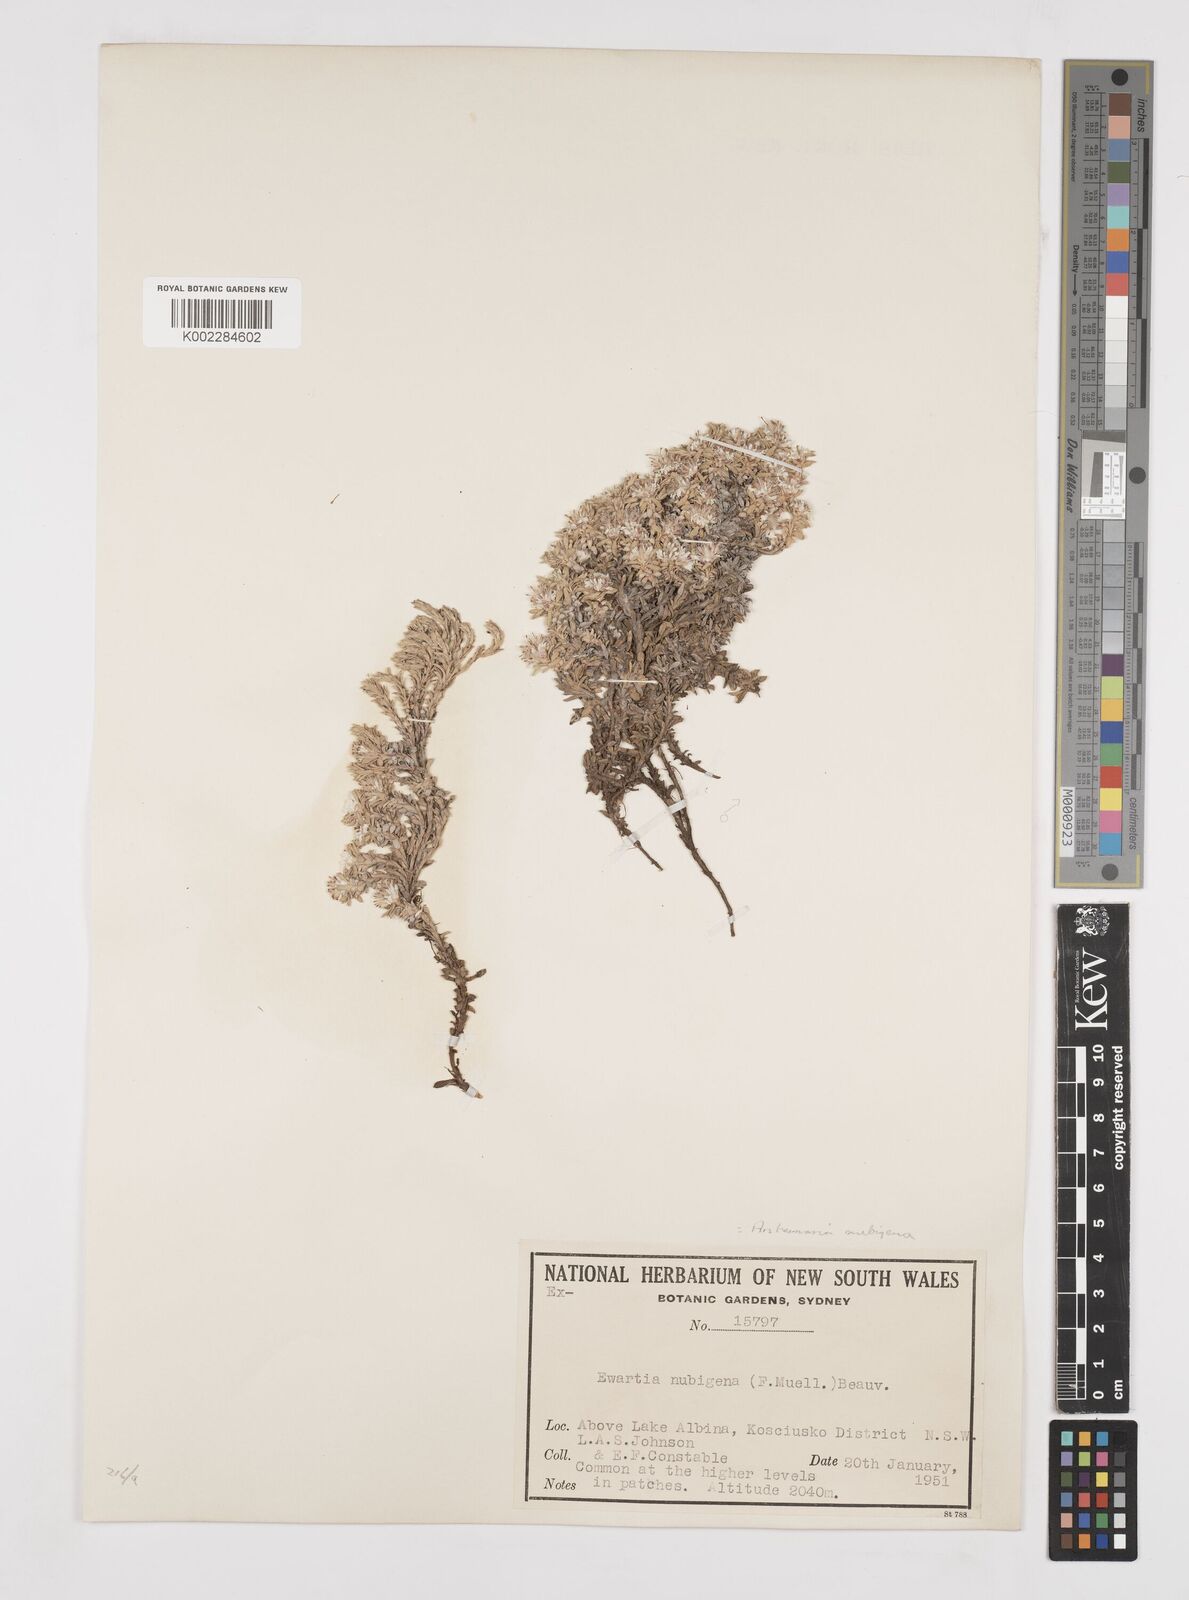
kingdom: Plantae
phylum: Tracheophyta
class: Magnoliopsida
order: Asterales
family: Asteraceae
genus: Ewartia
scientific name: Ewartia nubigena
